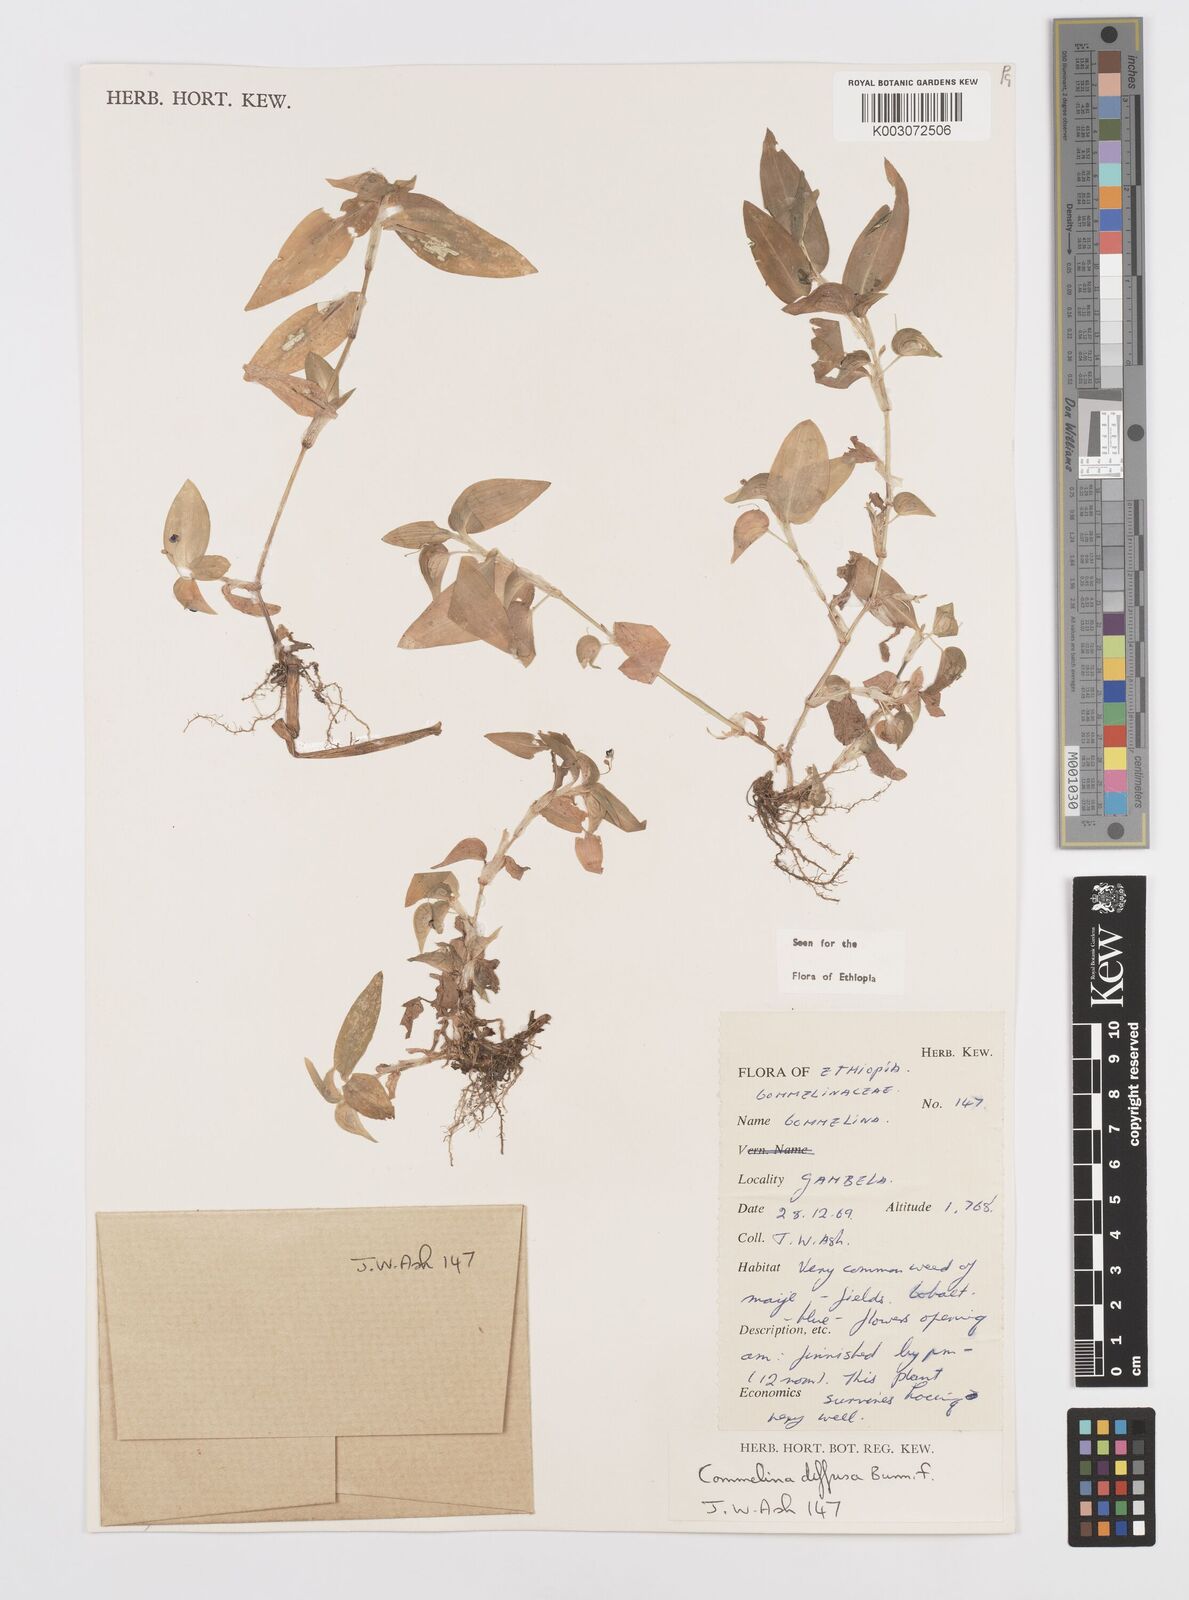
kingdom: Plantae
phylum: Tracheophyta
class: Liliopsida
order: Commelinales
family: Commelinaceae
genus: Commelina
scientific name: Commelina diffusa
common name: Climbing dayflower
